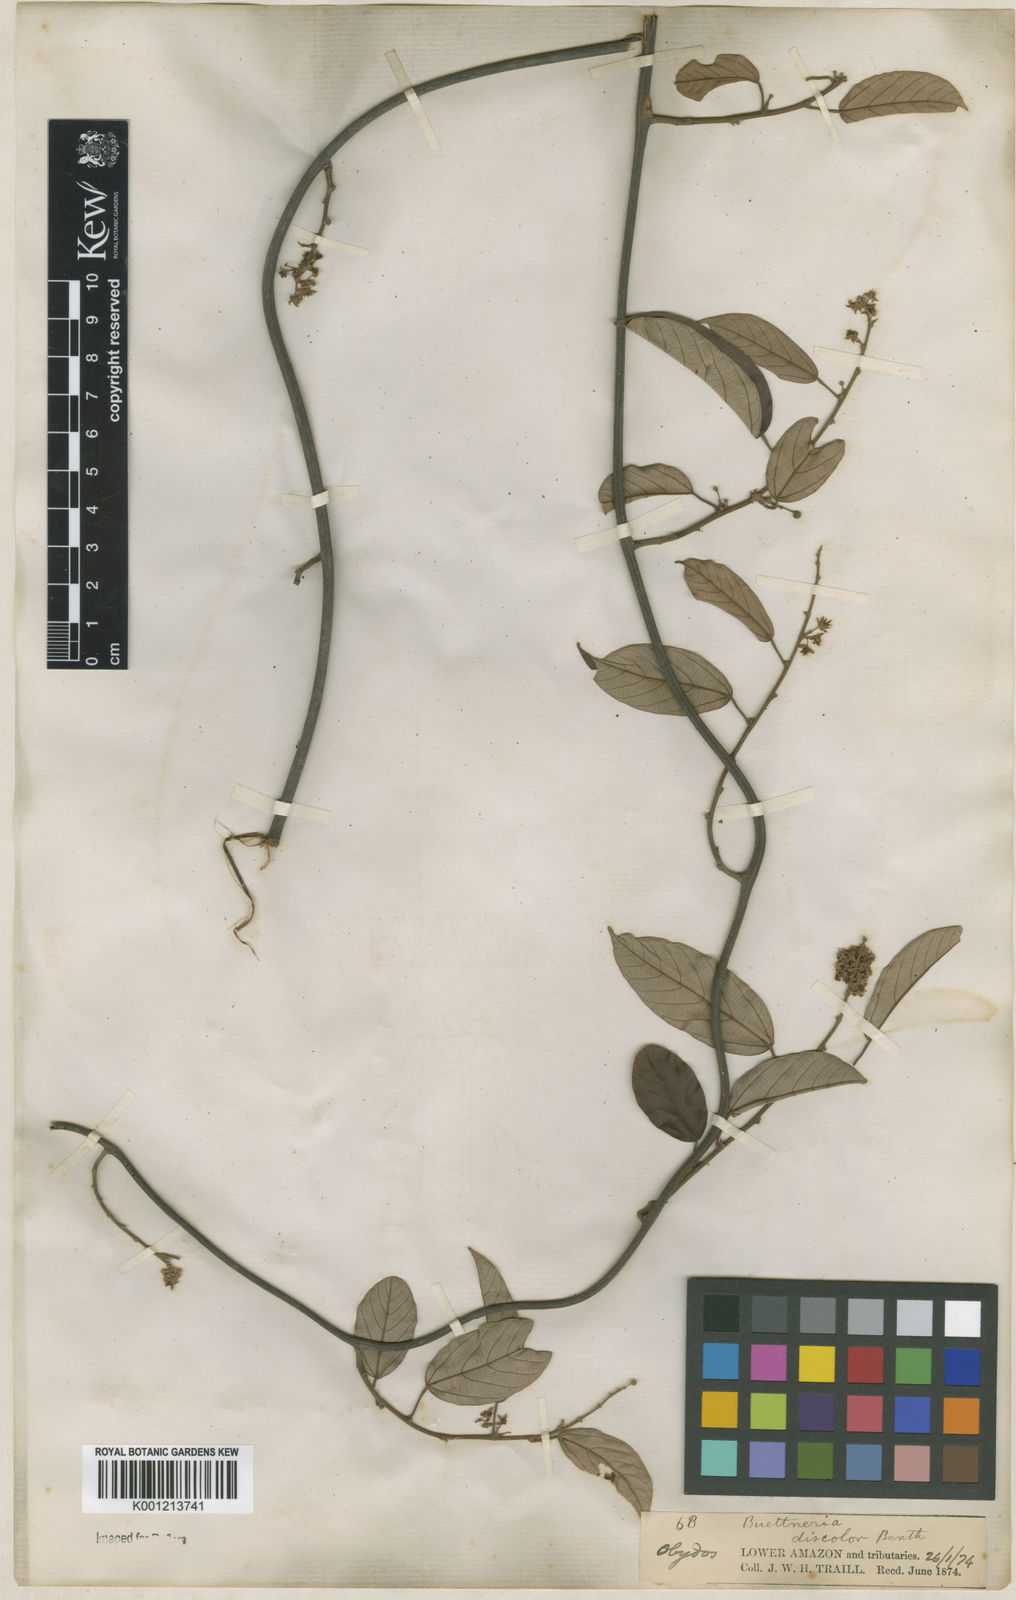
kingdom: Plantae
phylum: Tracheophyta
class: Magnoliopsida
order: Malvales
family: Malvaceae
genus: Byttneria
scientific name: Byttneria fulva
